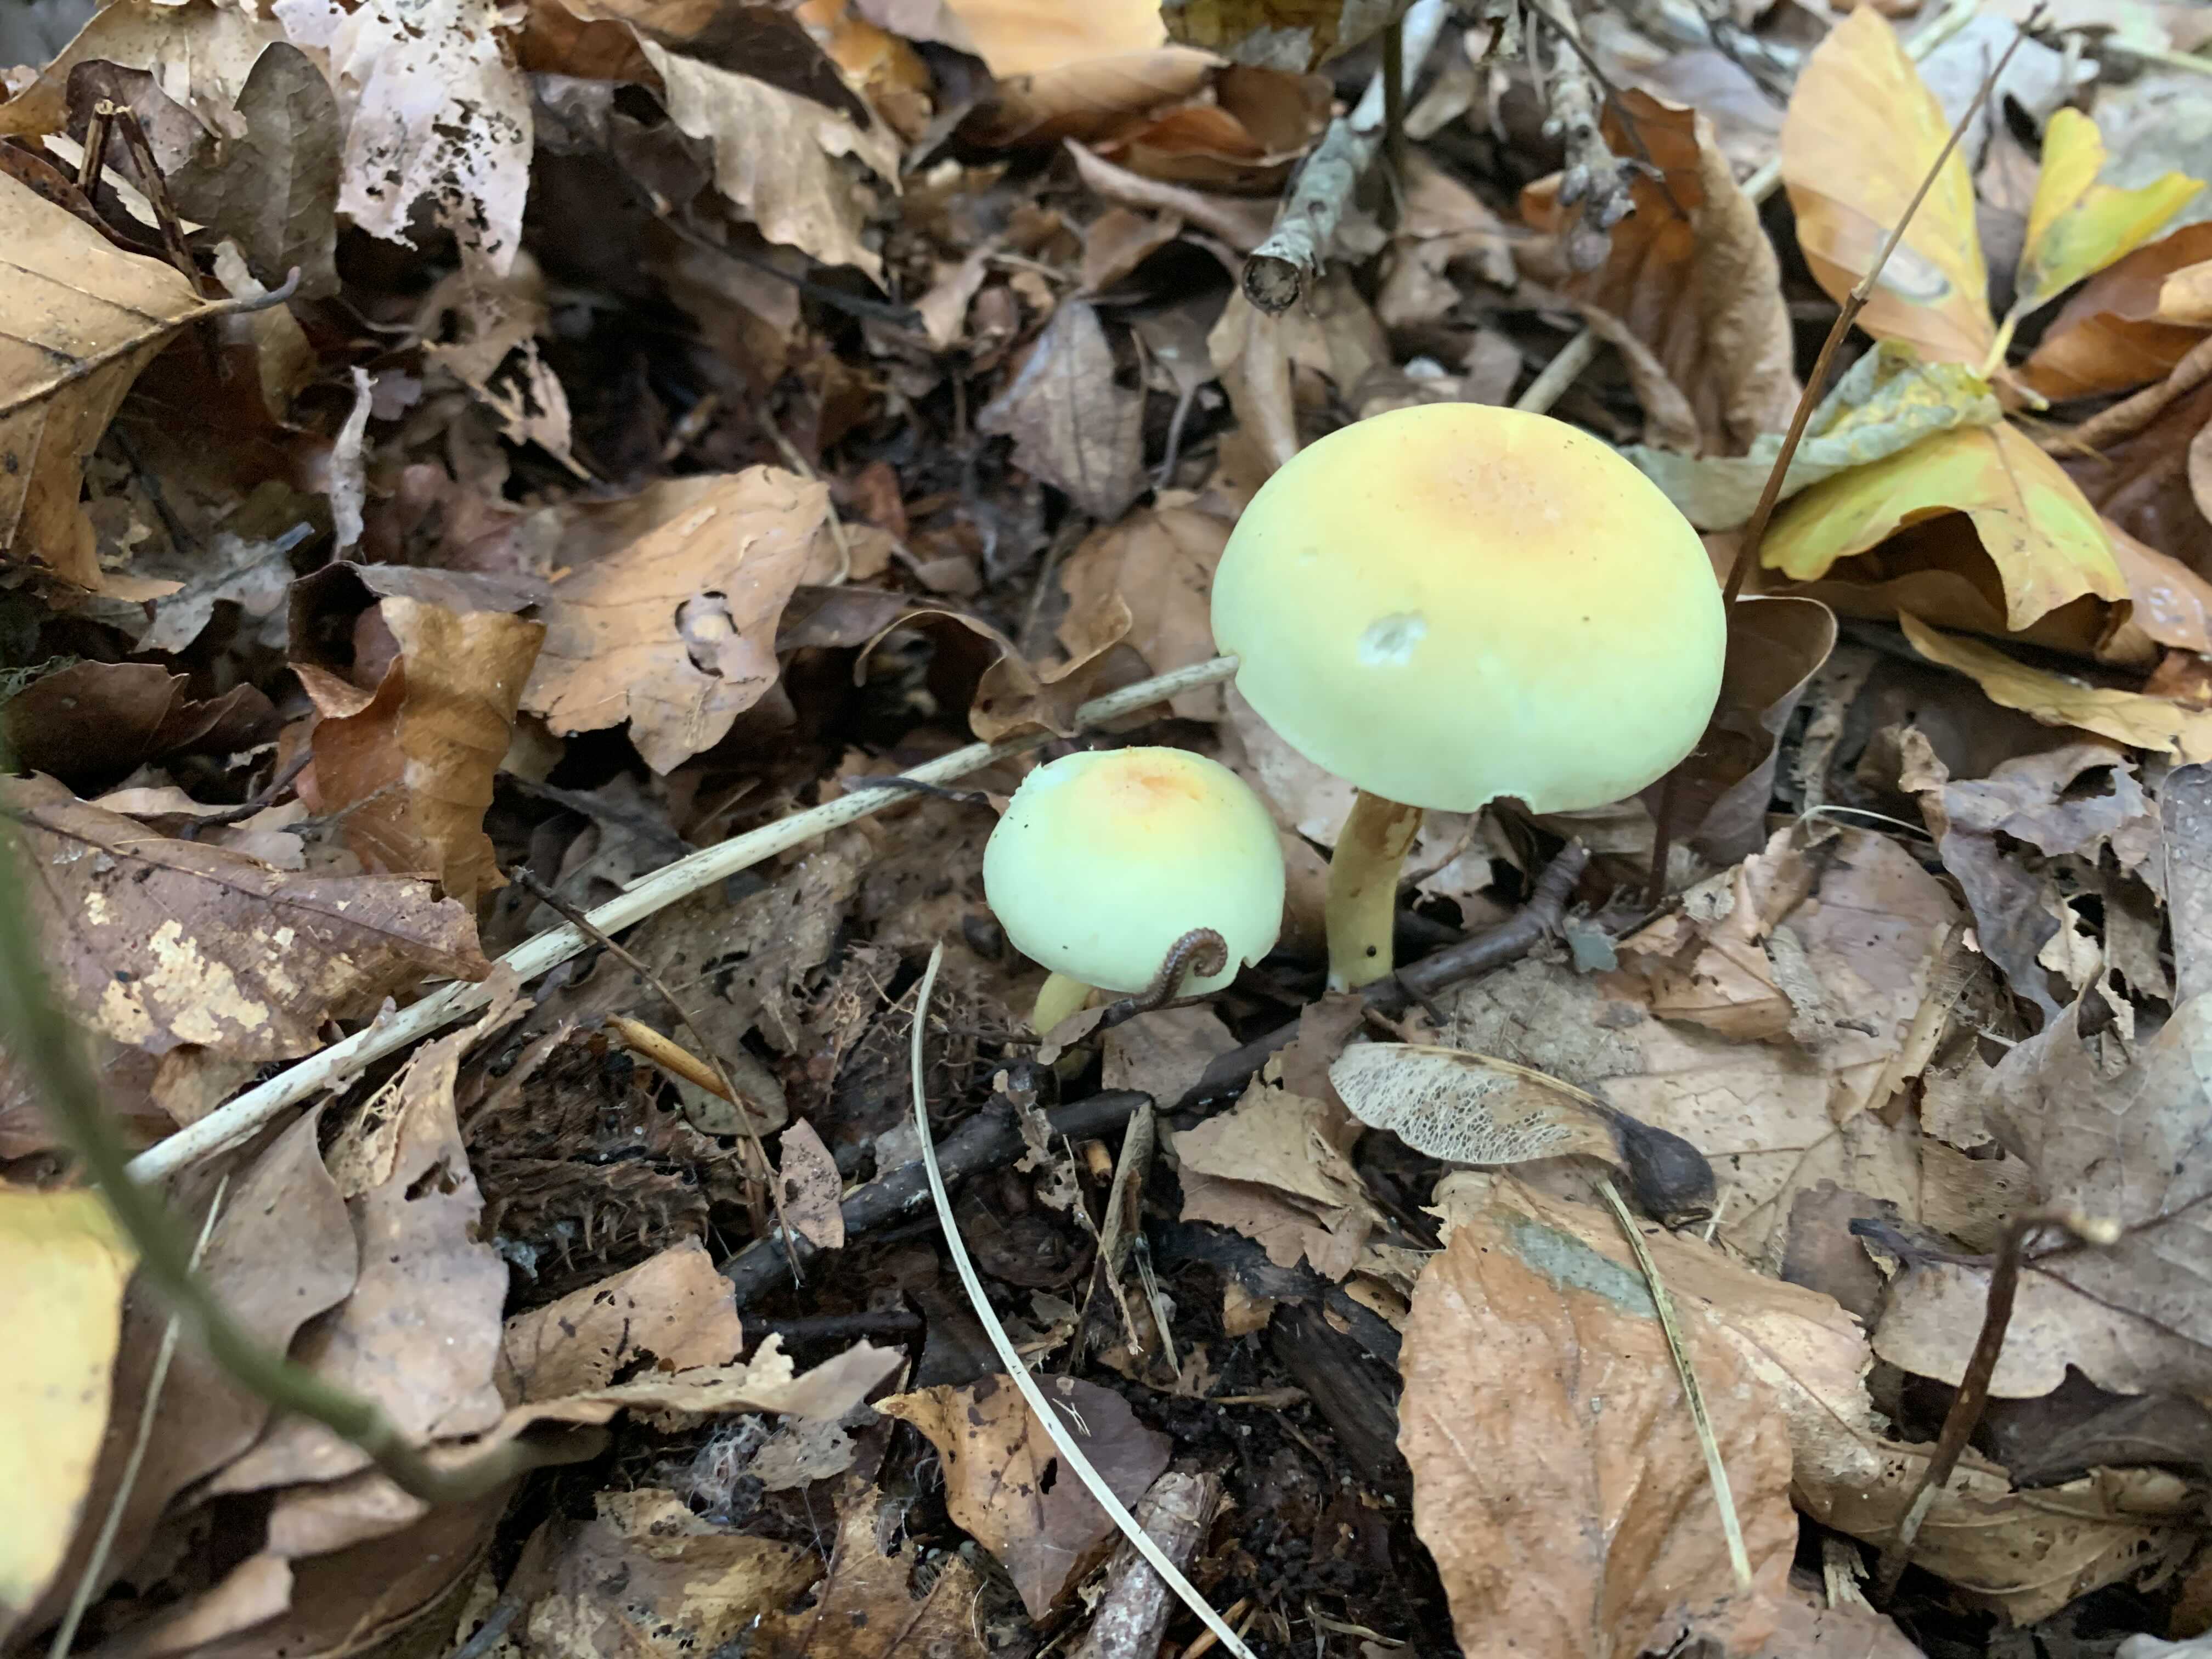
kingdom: Fungi
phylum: Basidiomycota
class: Agaricomycetes
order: Agaricales
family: Strophariaceae
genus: Hypholoma
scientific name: Hypholoma
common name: svovlhat
